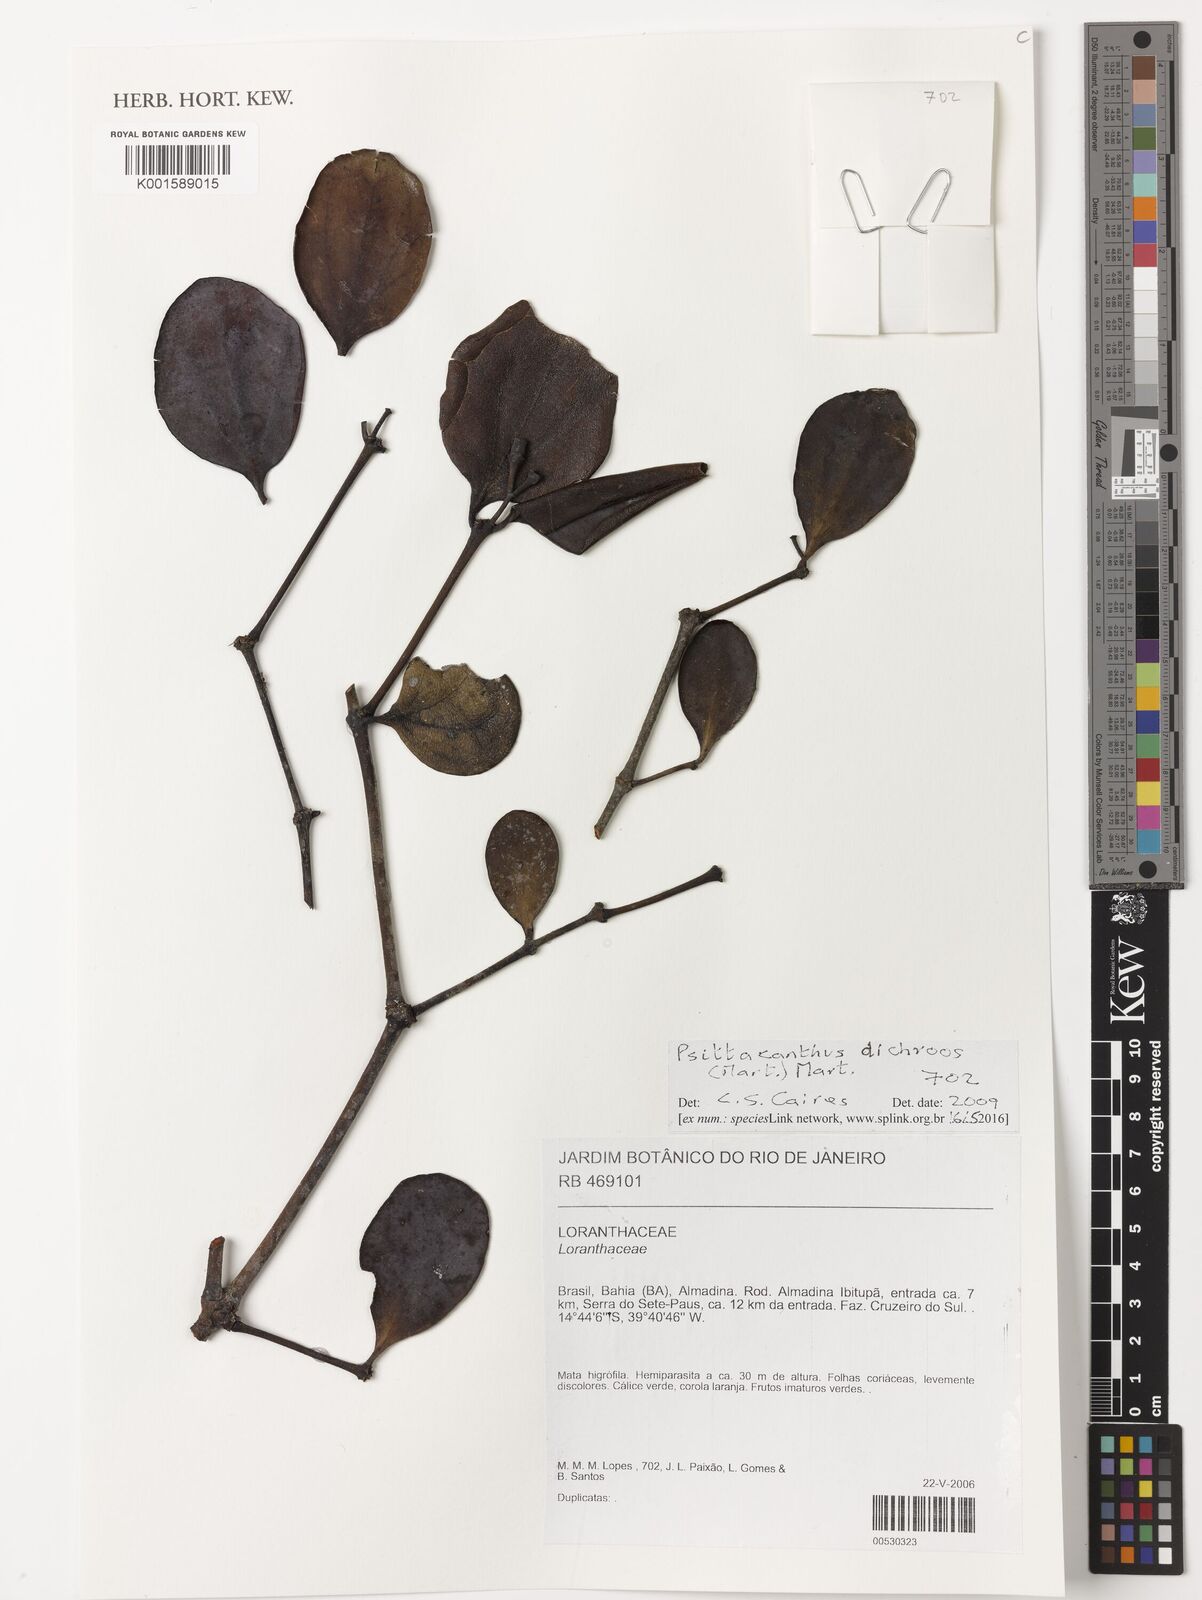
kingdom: Plantae
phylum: Tracheophyta
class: Magnoliopsida
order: Santalales
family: Loranthaceae
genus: Psittacanthus
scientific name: Psittacanthus dichrous
